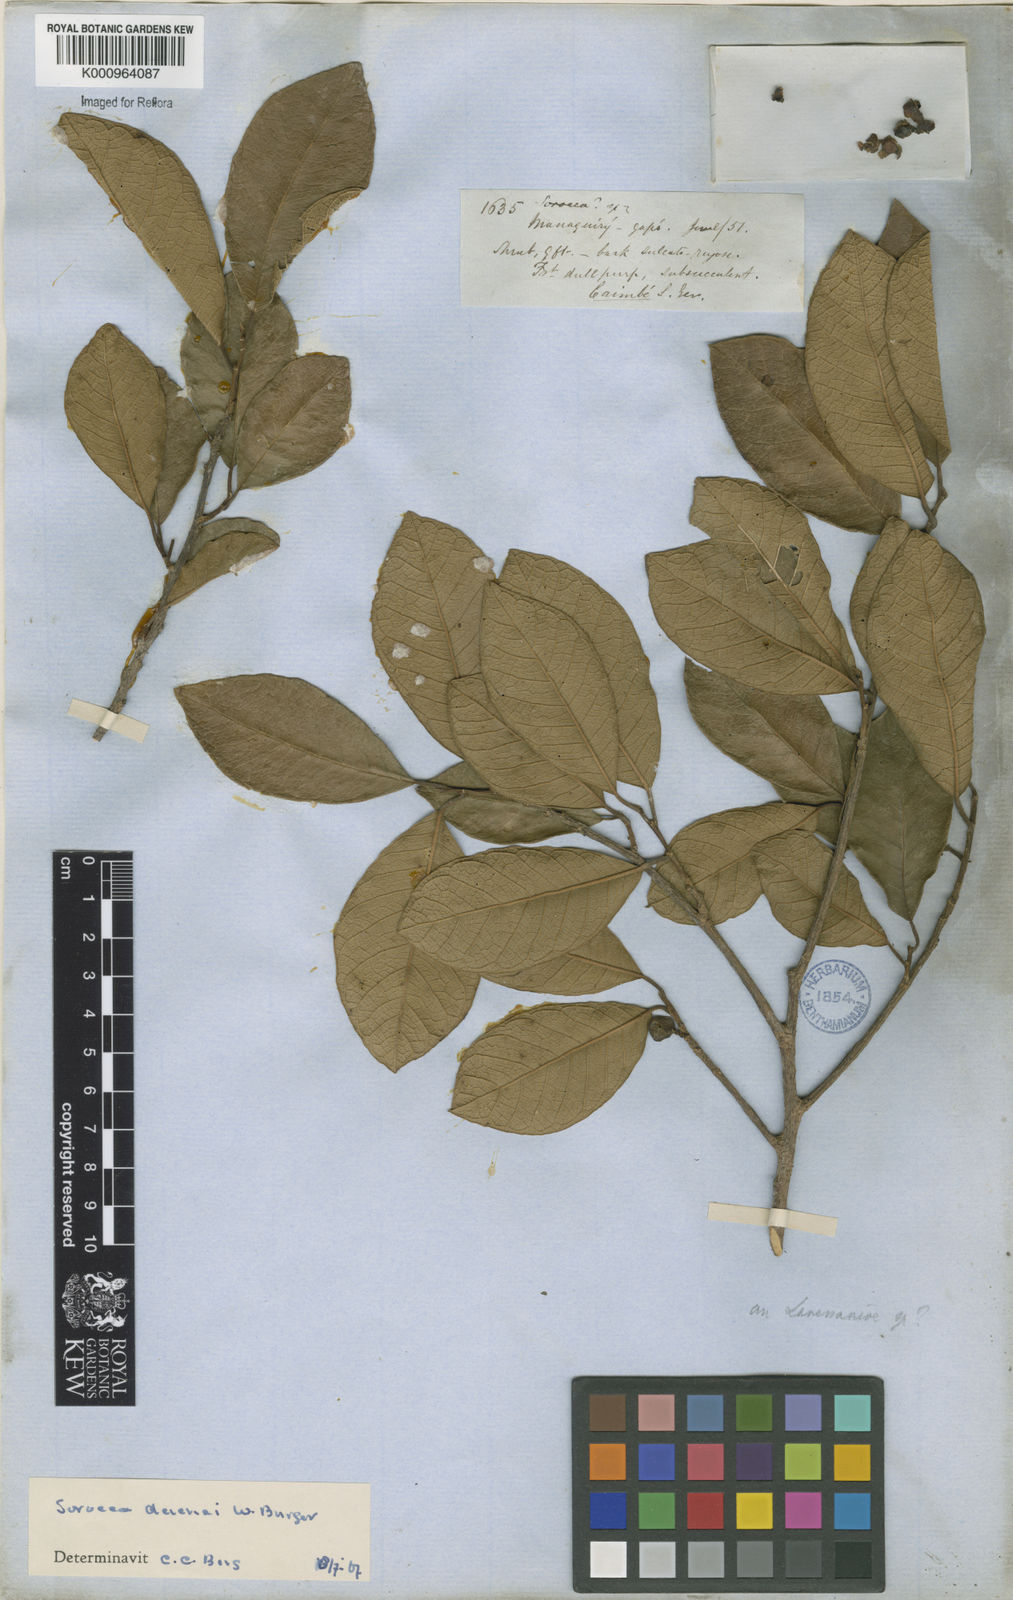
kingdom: Plantae
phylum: Tracheophyta
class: Magnoliopsida
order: Rosales
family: Moraceae
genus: Sorocea
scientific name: Sorocea duckei
